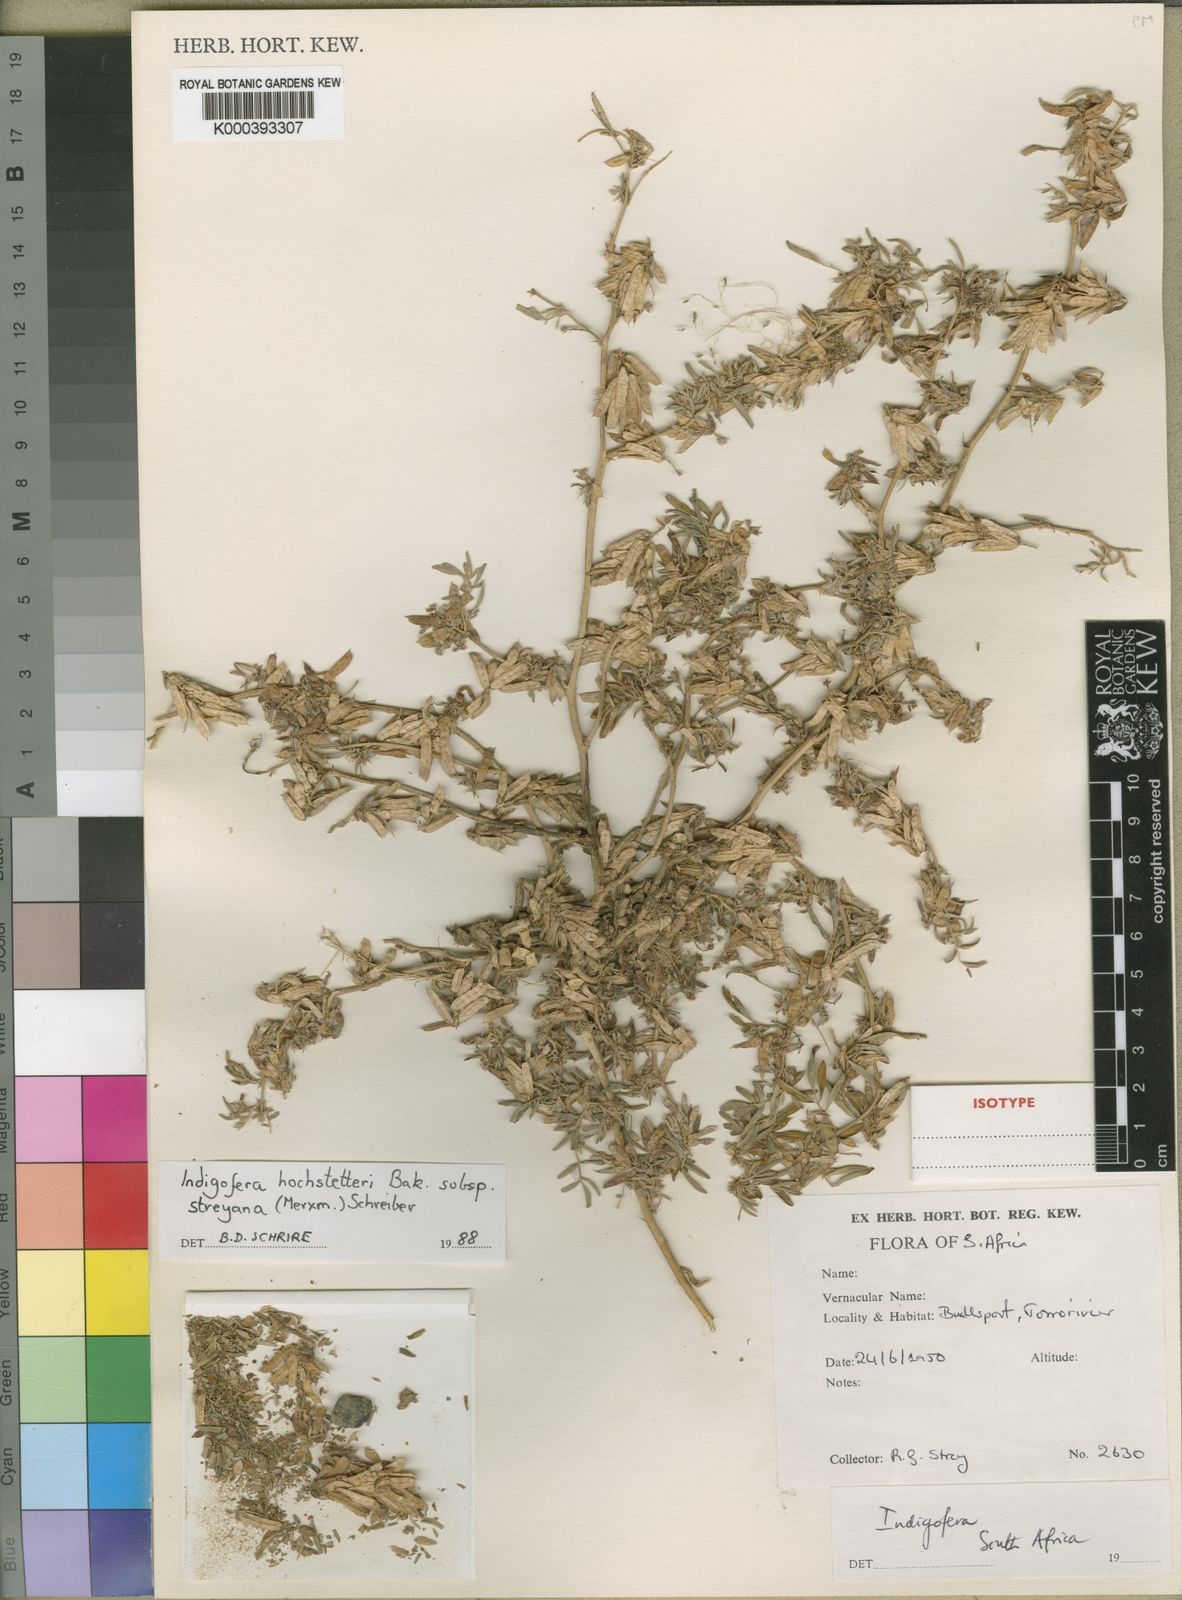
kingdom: Plantae
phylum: Tracheophyta
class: Magnoliopsida
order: Fabales
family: Fabaceae
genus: Indigofera
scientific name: Indigofera hochstetteri
